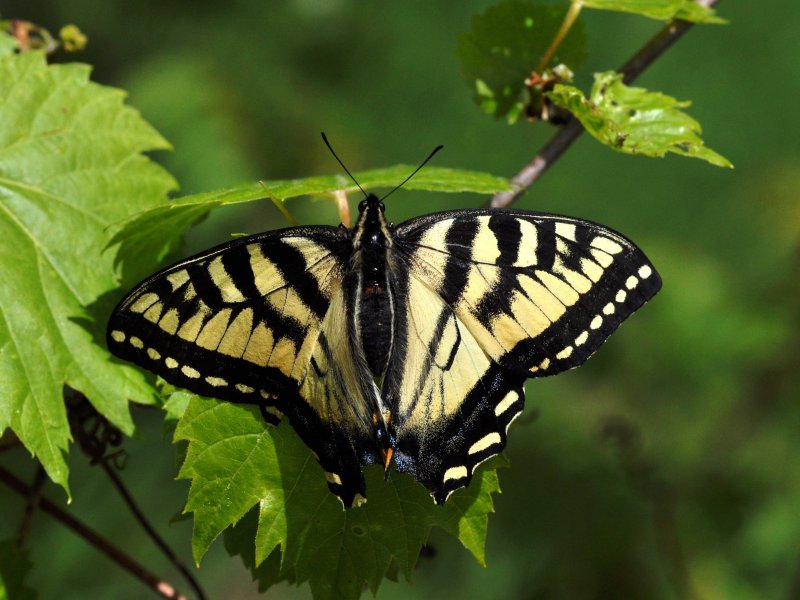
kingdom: Animalia
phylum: Arthropoda
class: Insecta
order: Lepidoptera
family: Papilionidae
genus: Pterourus
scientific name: Pterourus canadensis
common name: Canadian Tiger Swallowtail
